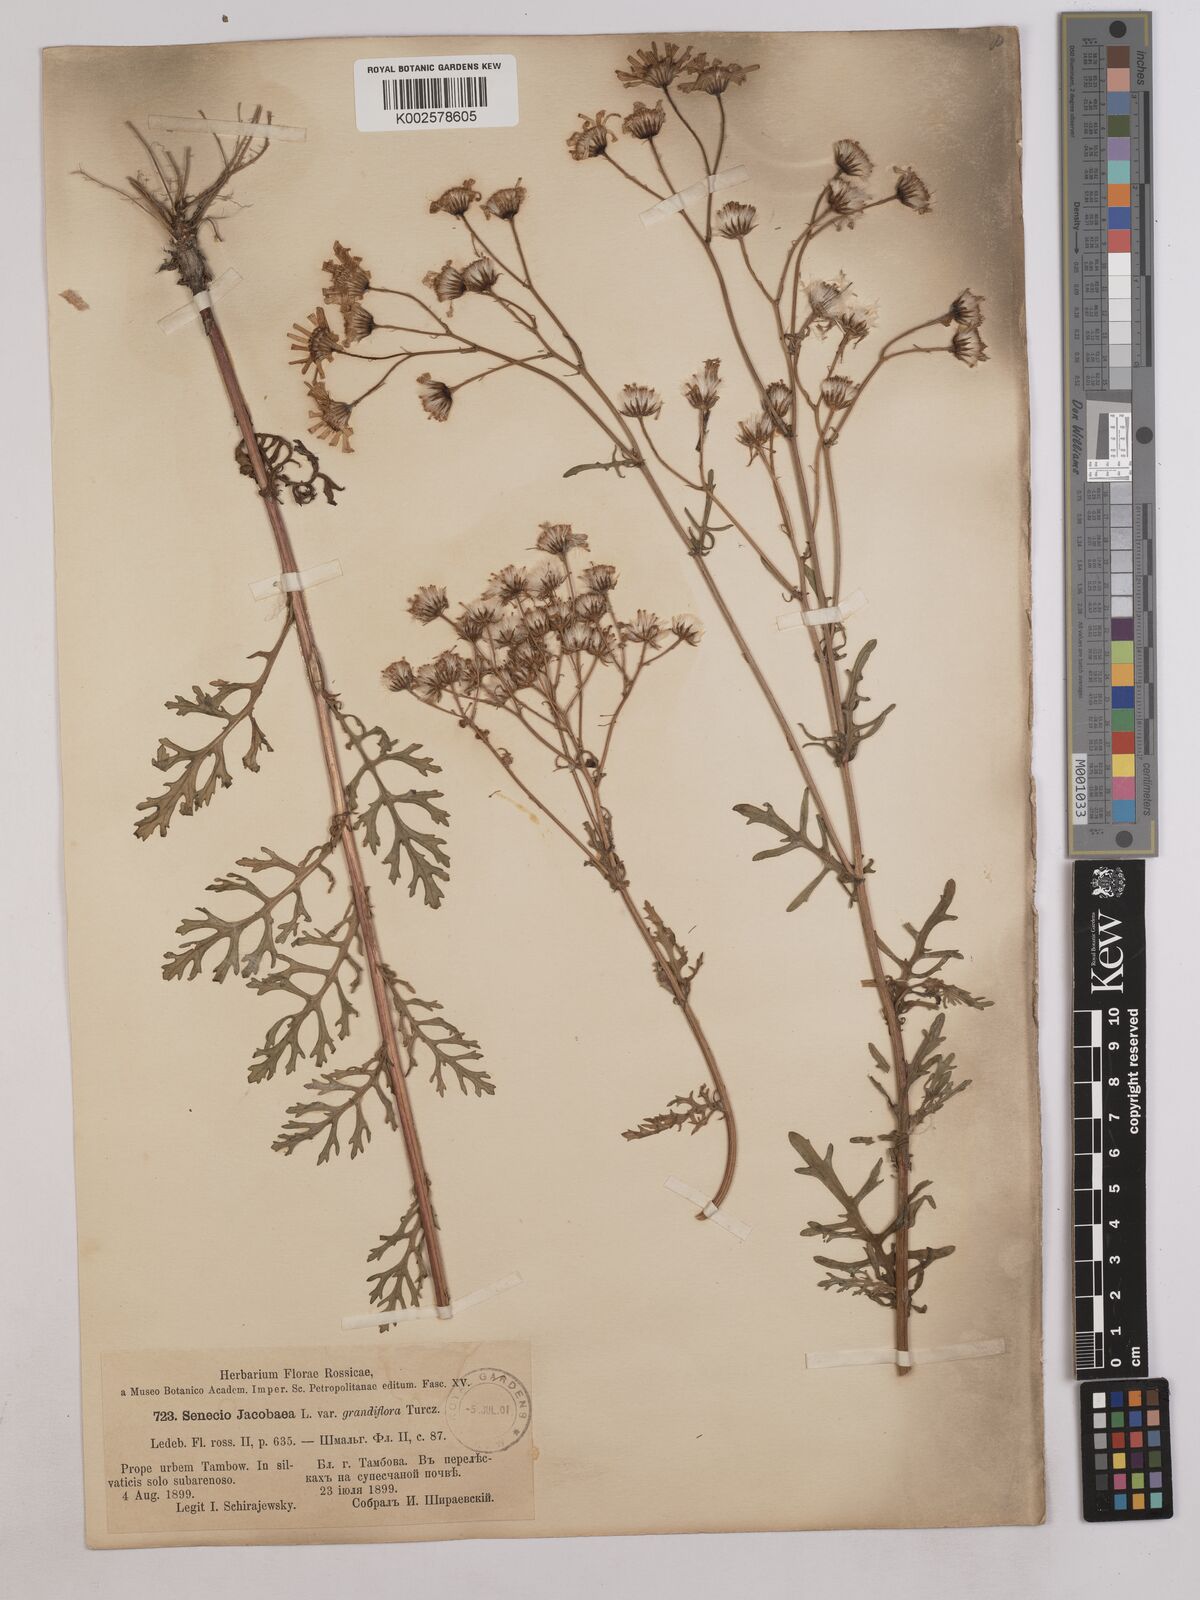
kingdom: Plantae
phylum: Tracheophyta
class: Magnoliopsida
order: Asterales
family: Asteraceae
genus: Jacobaea
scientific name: Jacobaea vulgaris
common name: Stinking willie
